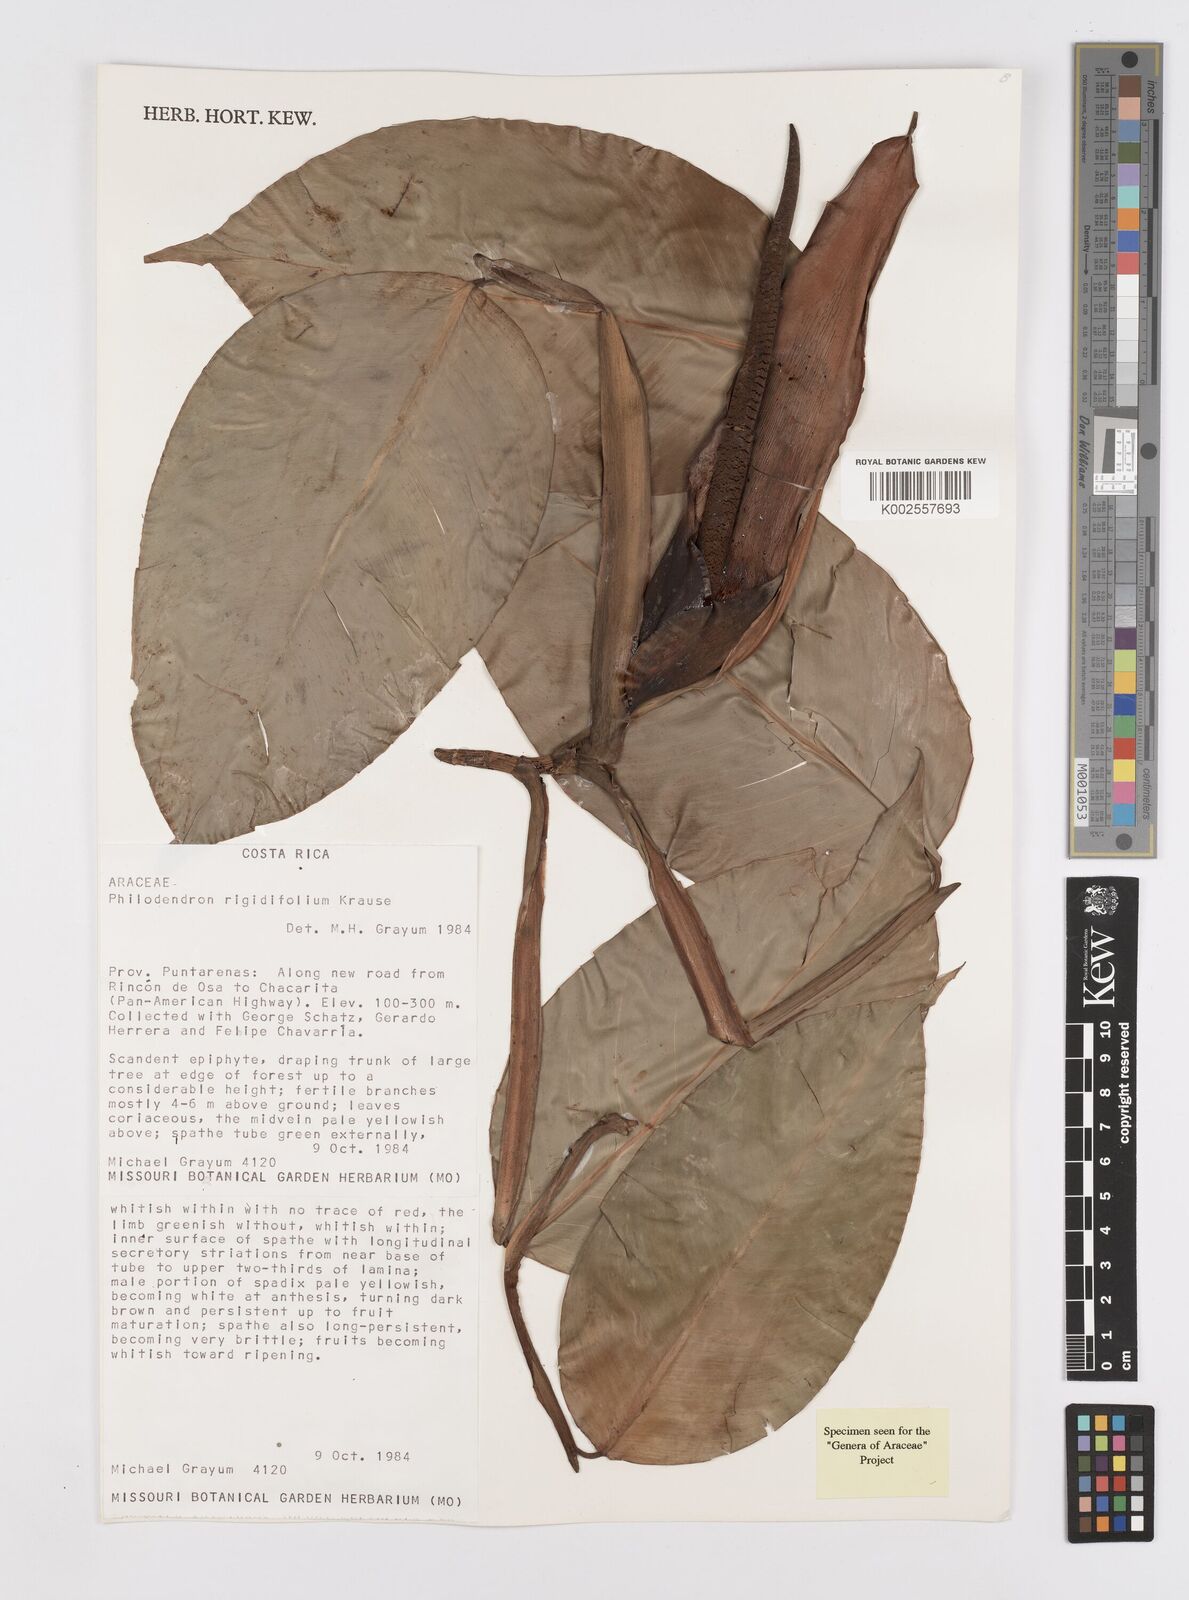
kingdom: Plantae
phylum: Tracheophyta
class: Liliopsida
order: Alismatales
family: Araceae
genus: Philodendron
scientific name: Philodendron rigidifolium
